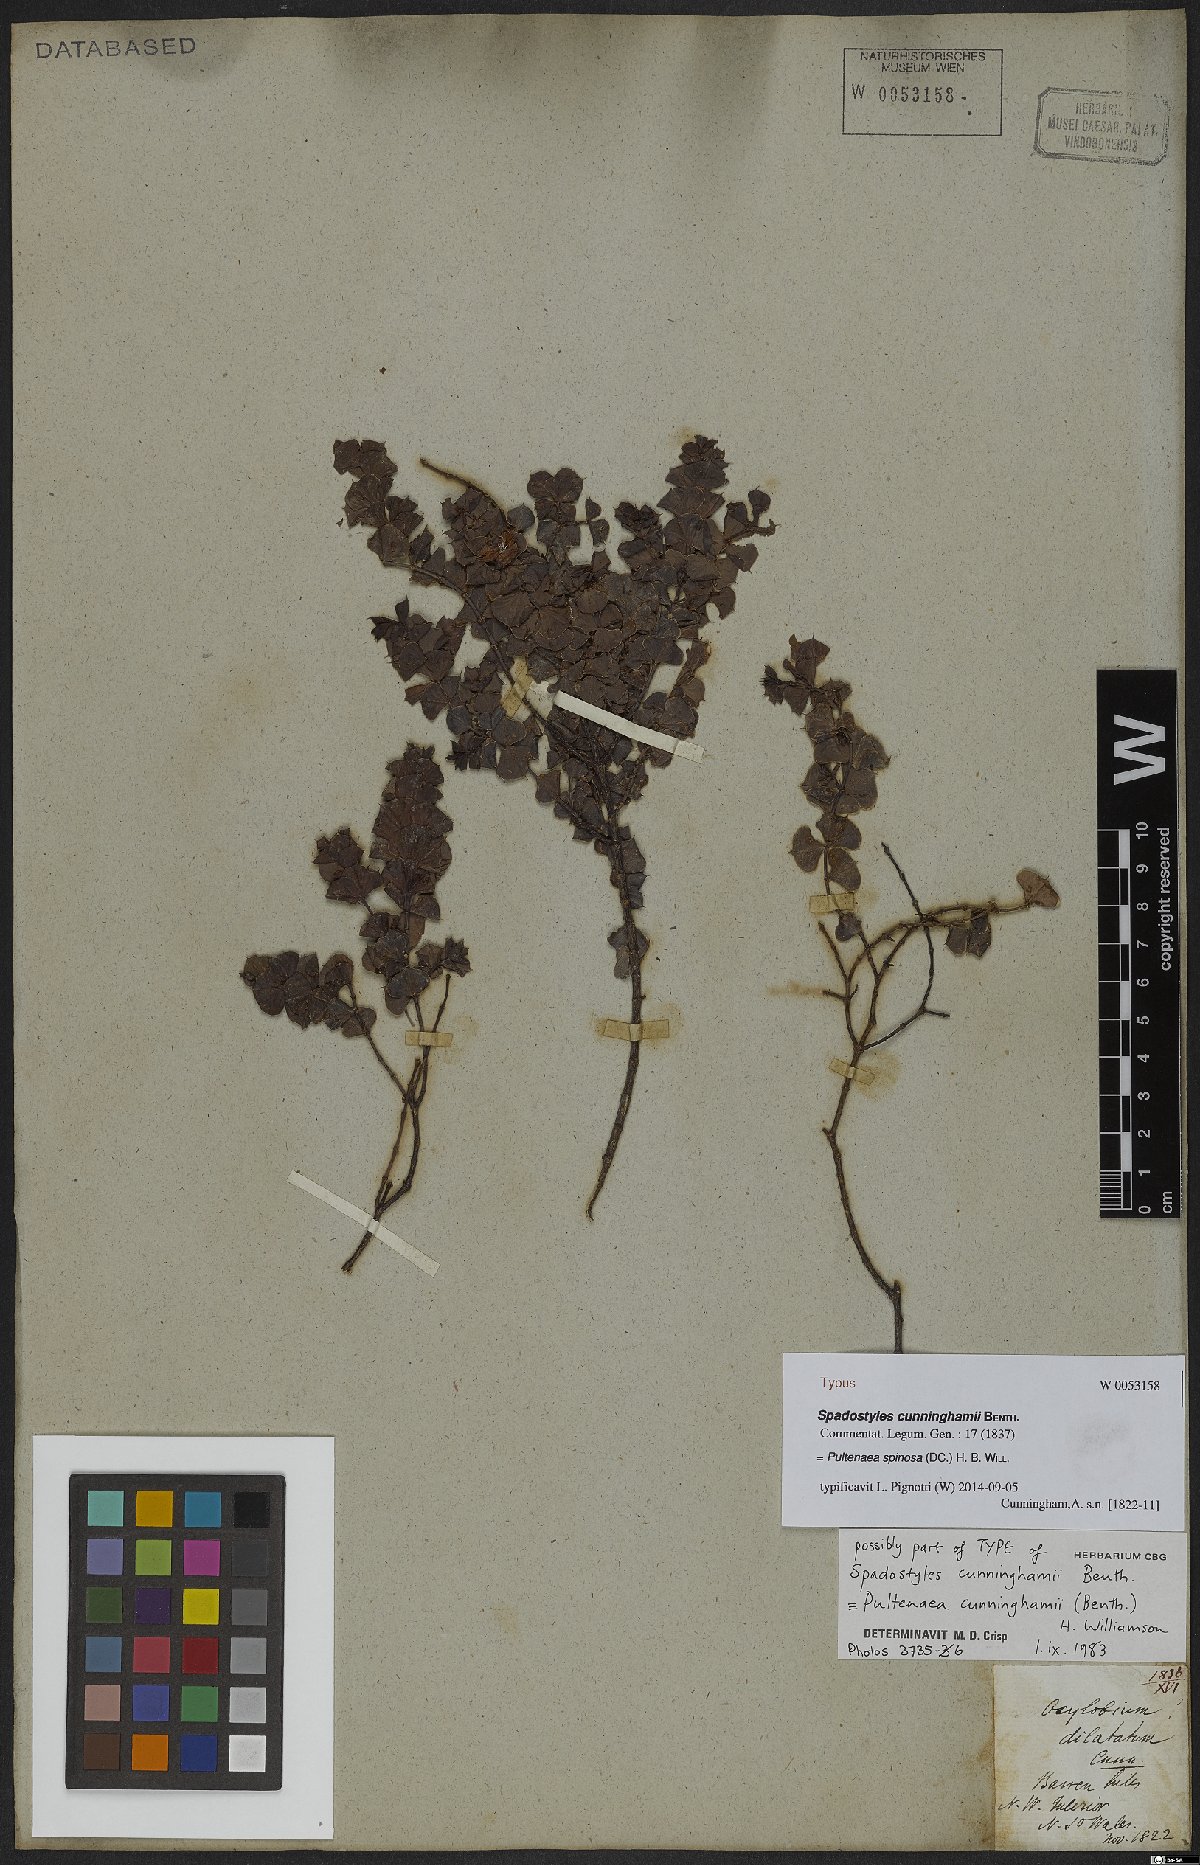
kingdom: Plantae
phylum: Tracheophyta
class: Magnoliopsida
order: Fabales
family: Fabaceae
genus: Pultenaea
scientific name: Pultenaea spinosa
